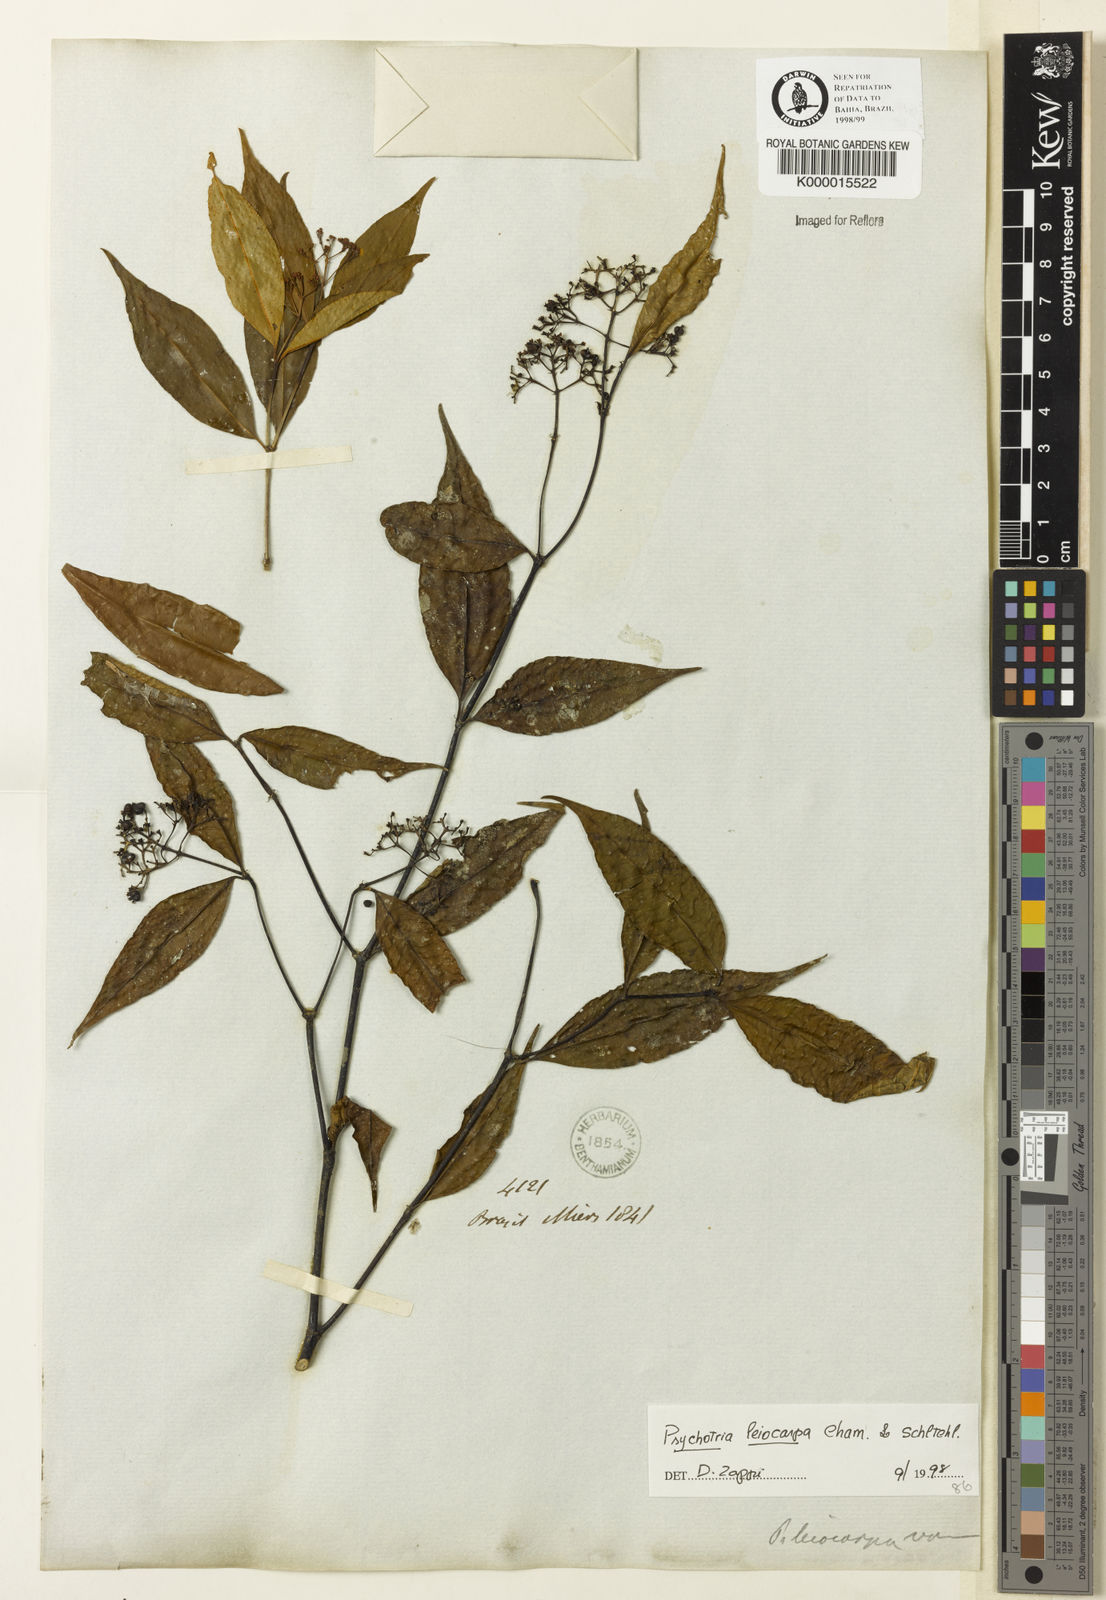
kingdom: Plantae
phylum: Tracheophyta
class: Magnoliopsida
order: Gentianales
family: Rubiaceae
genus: Psychotria
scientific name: Psychotria leiocarpa
